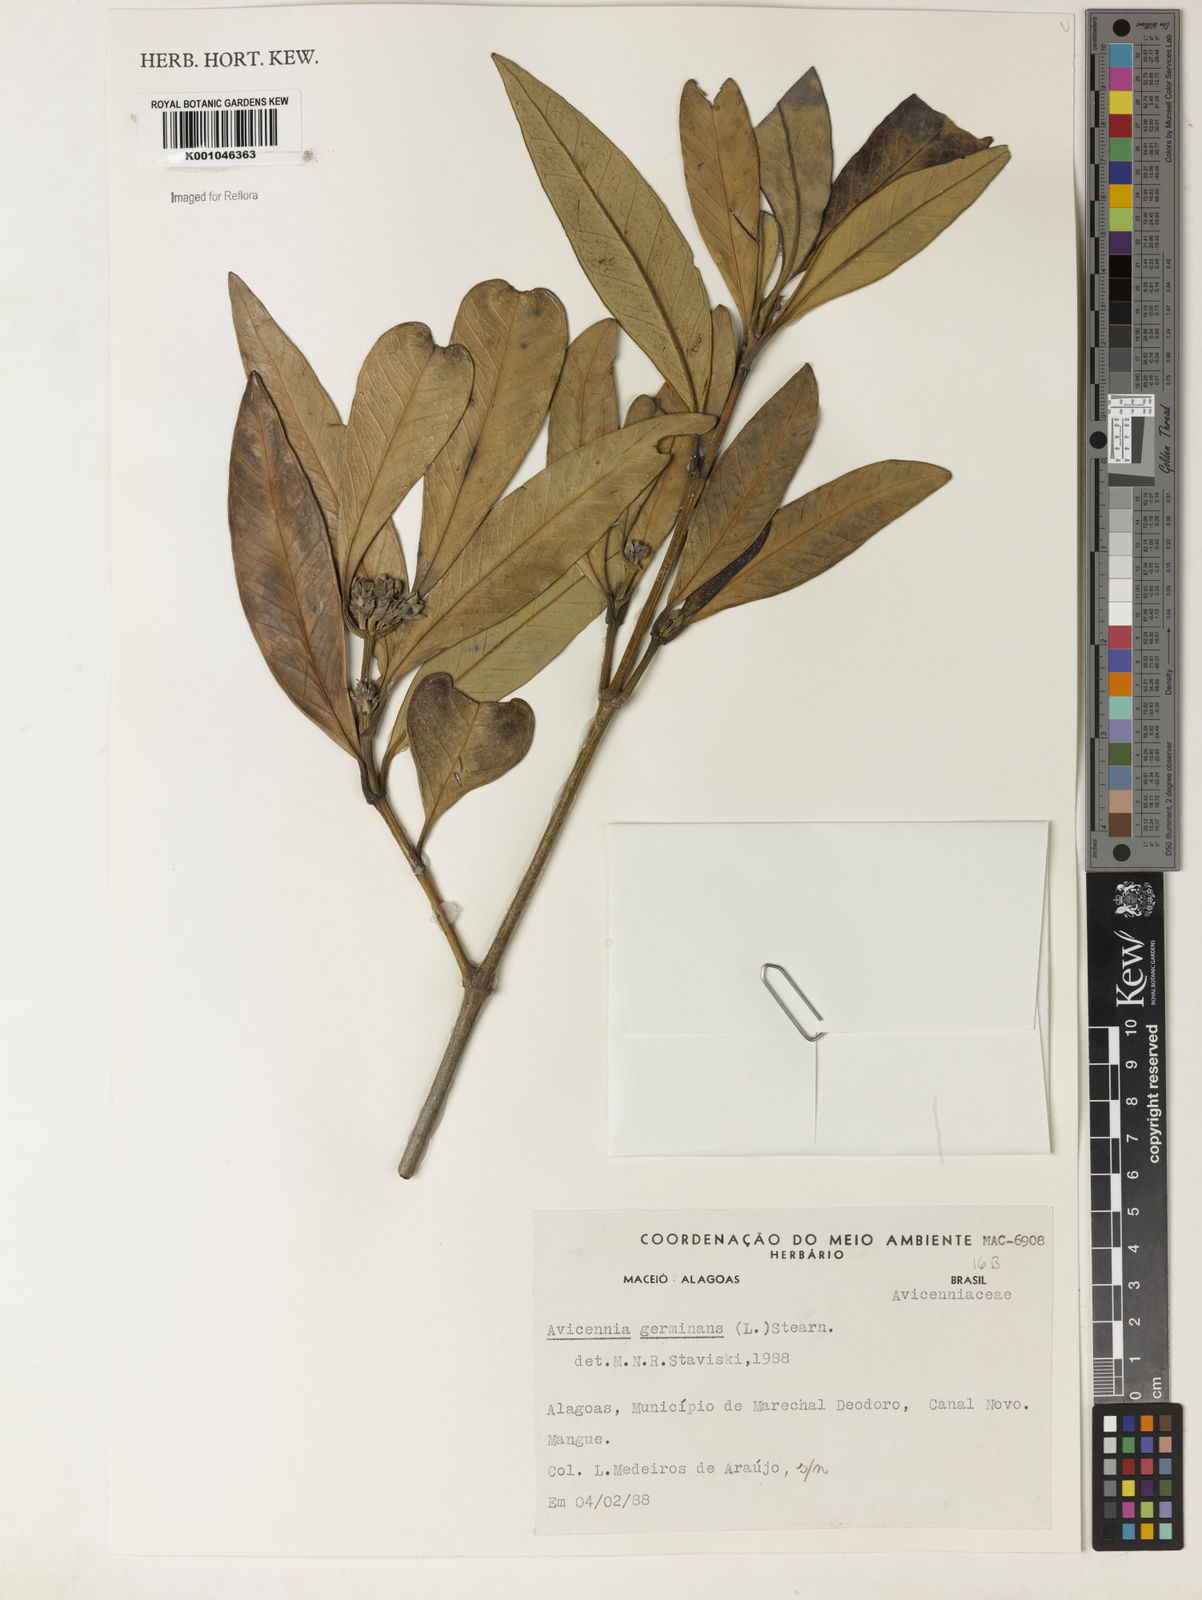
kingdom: Plantae
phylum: Tracheophyta
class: Magnoliopsida
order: Lamiales
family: Acanthaceae
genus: Avicennia
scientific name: Avicennia germinans
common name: Black mangrove
